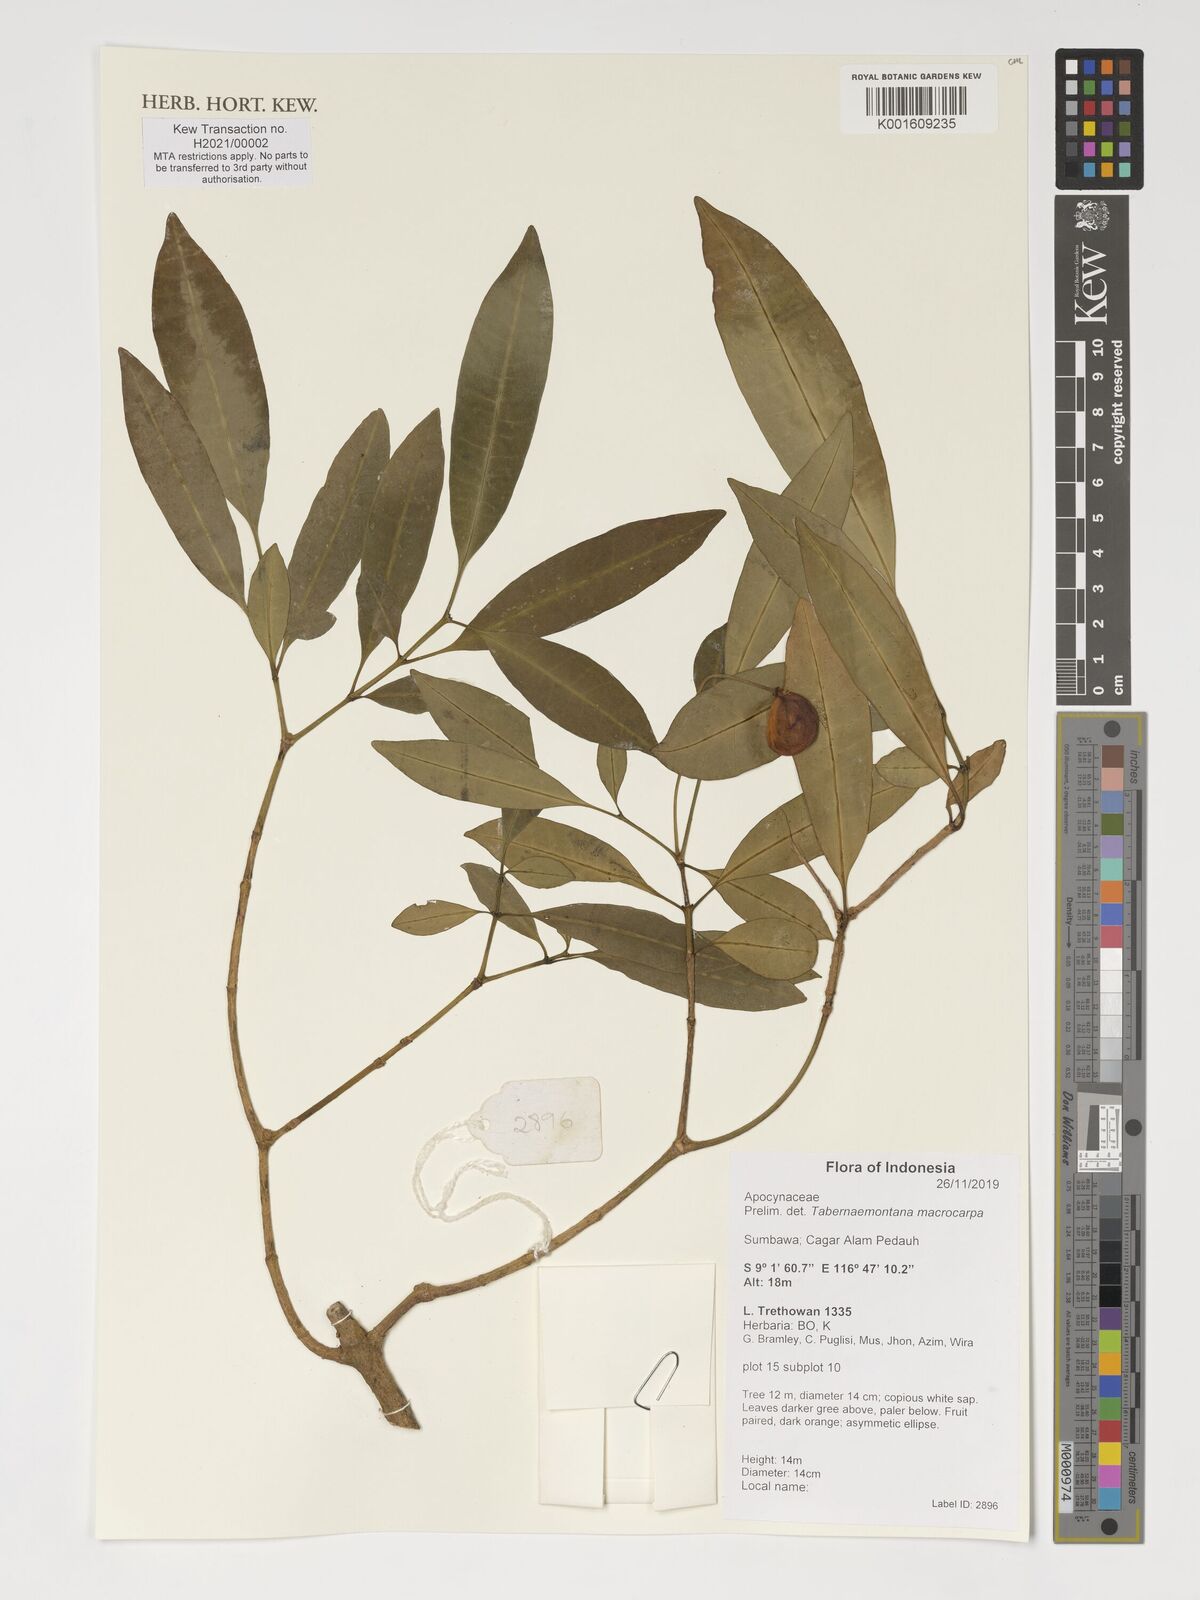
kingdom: Plantae
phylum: Tracheophyta
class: Magnoliopsida
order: Gentianales
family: Apocynaceae
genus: Tabernaemontana
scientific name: Tabernaemontana macrocarpa
